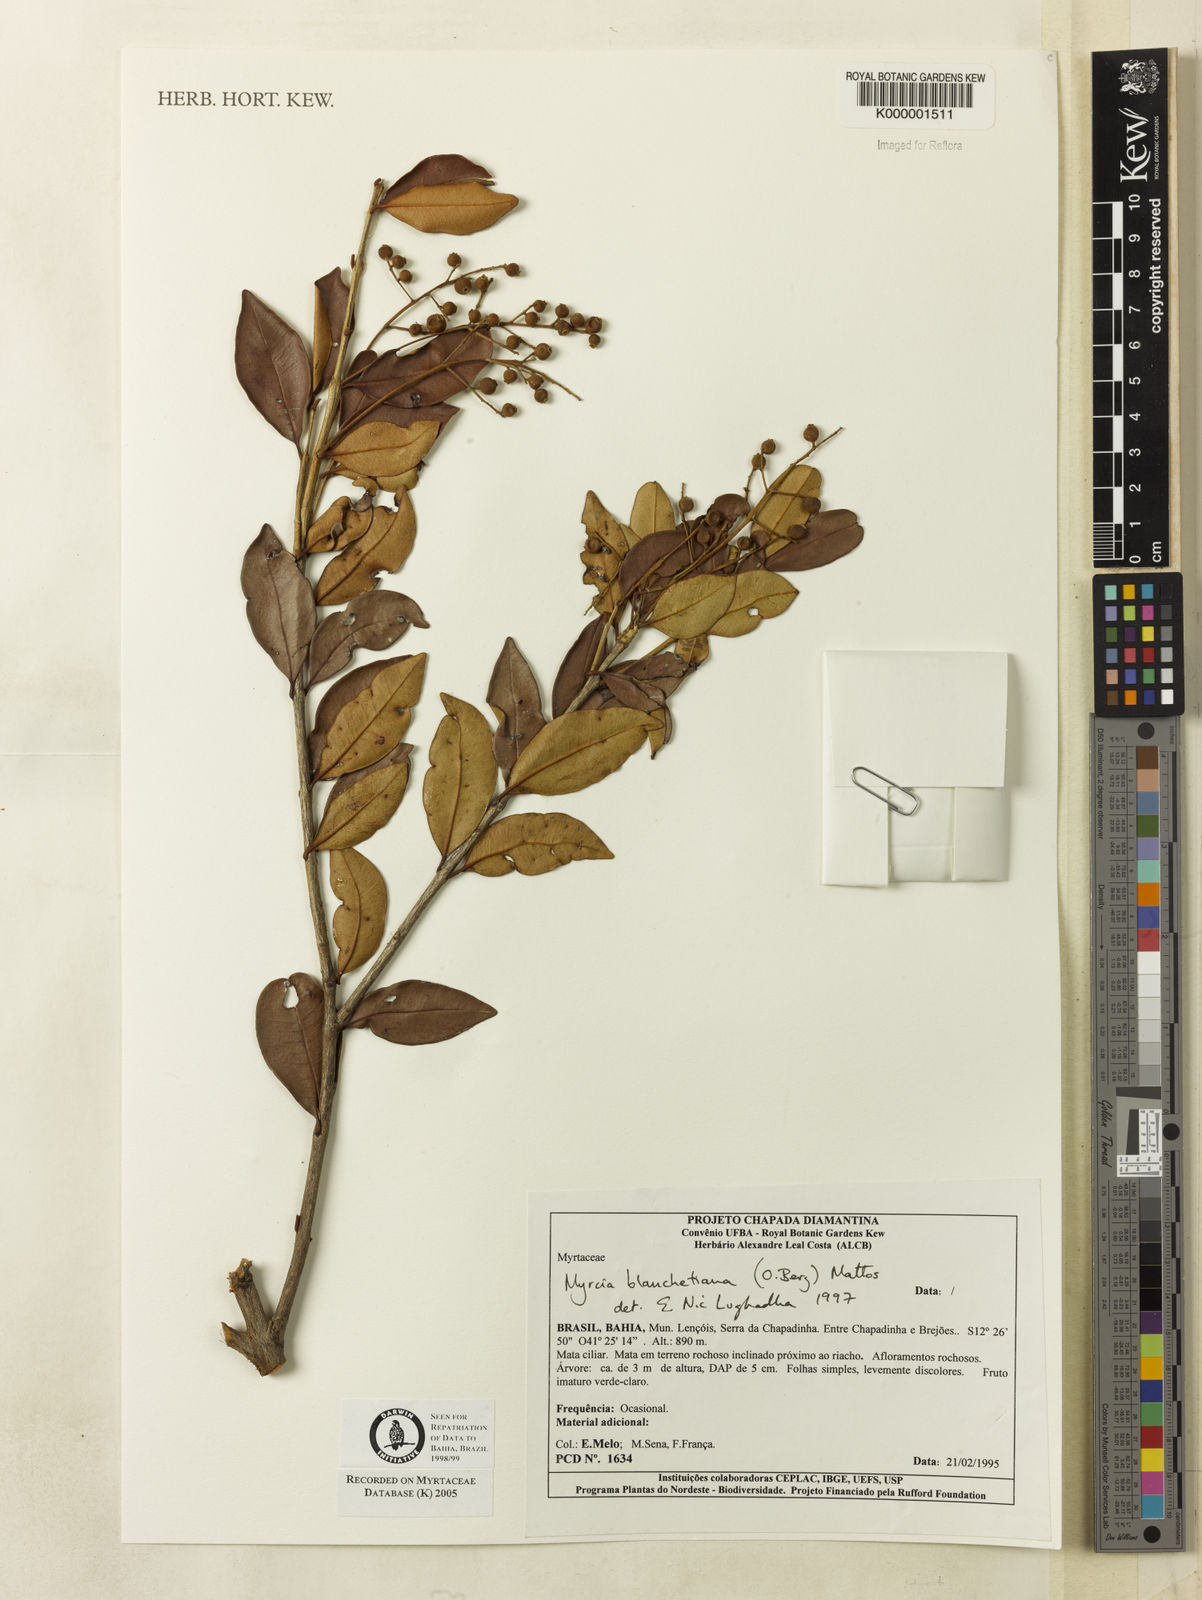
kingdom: Plantae
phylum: Tracheophyta
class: Magnoliopsida
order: Myrtales
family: Myrtaceae
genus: Myrcia
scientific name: Myrcia blanchetiana
